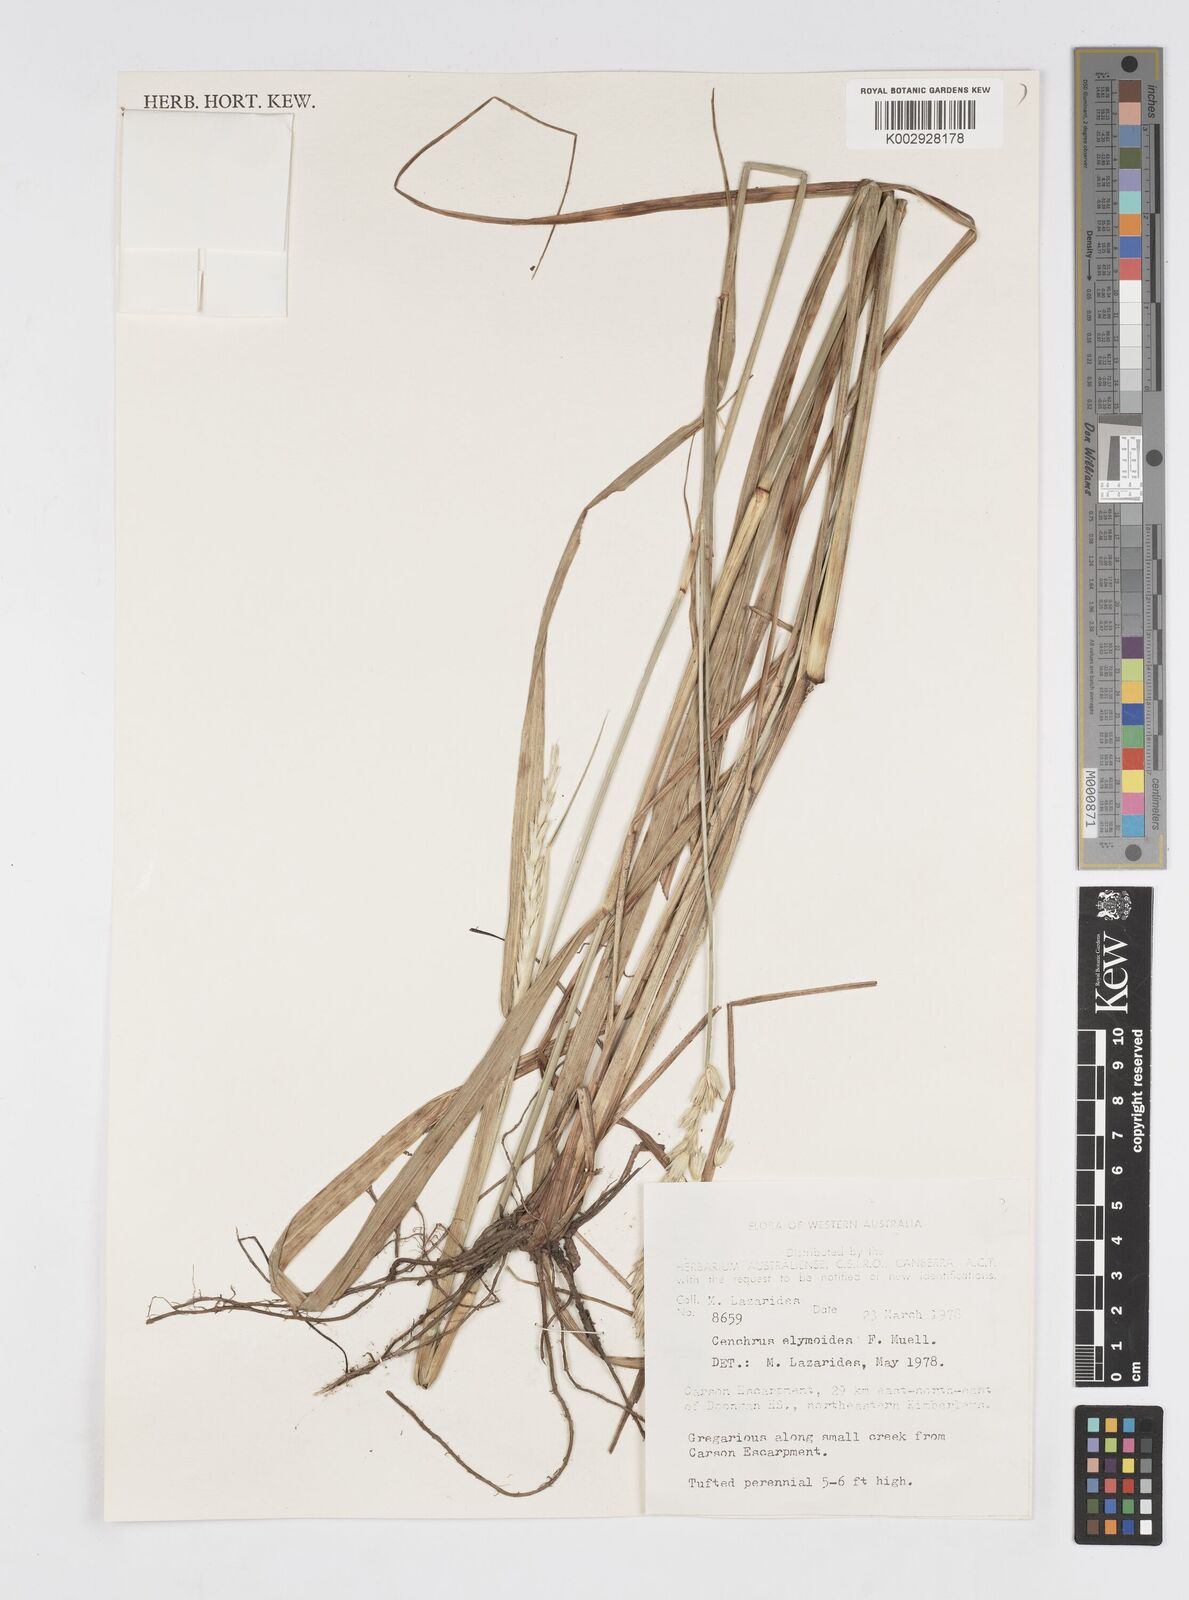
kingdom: Plantae
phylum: Tracheophyta
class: Liliopsida
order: Poales
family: Poaceae
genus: Cenchrus
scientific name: Cenchrus elymoides
